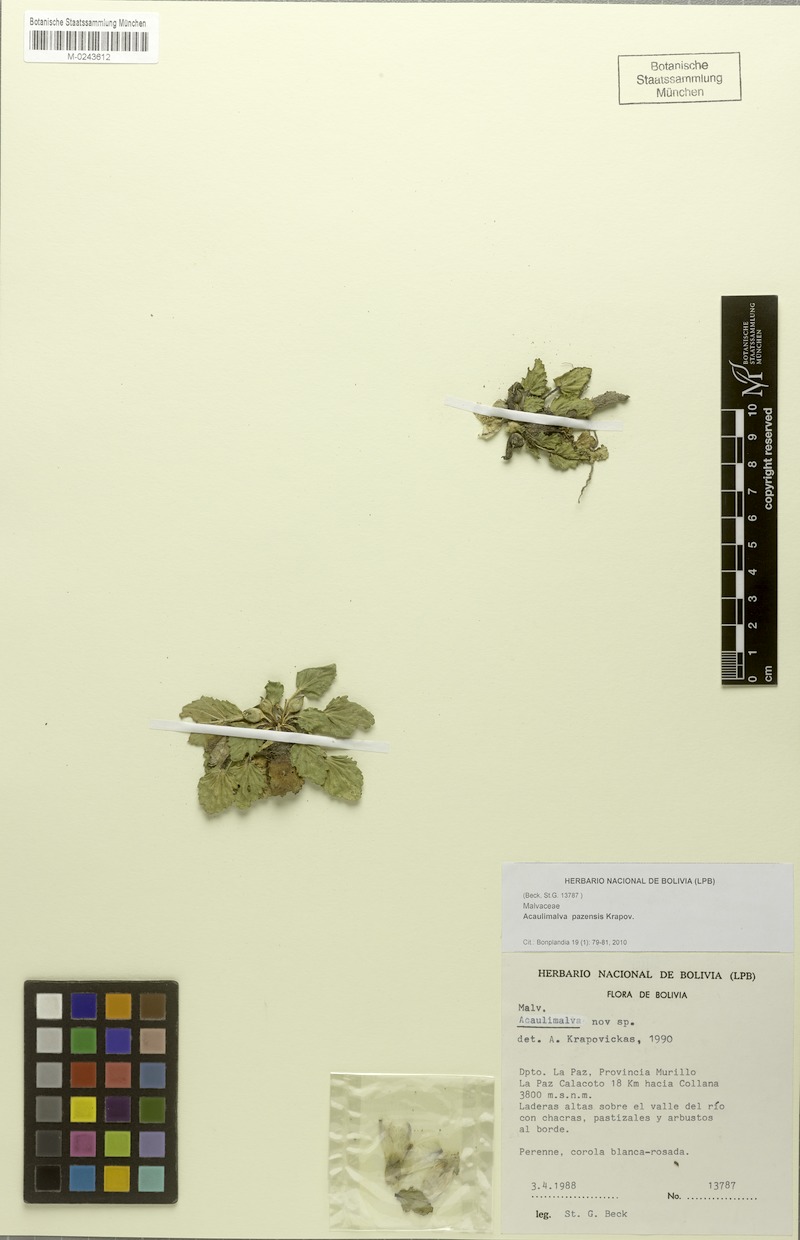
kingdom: Plantae
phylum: Tracheophyta
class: Magnoliopsida
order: Malvales
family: Malvaceae
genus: Acaulimalva
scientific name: Acaulimalva pazensis
